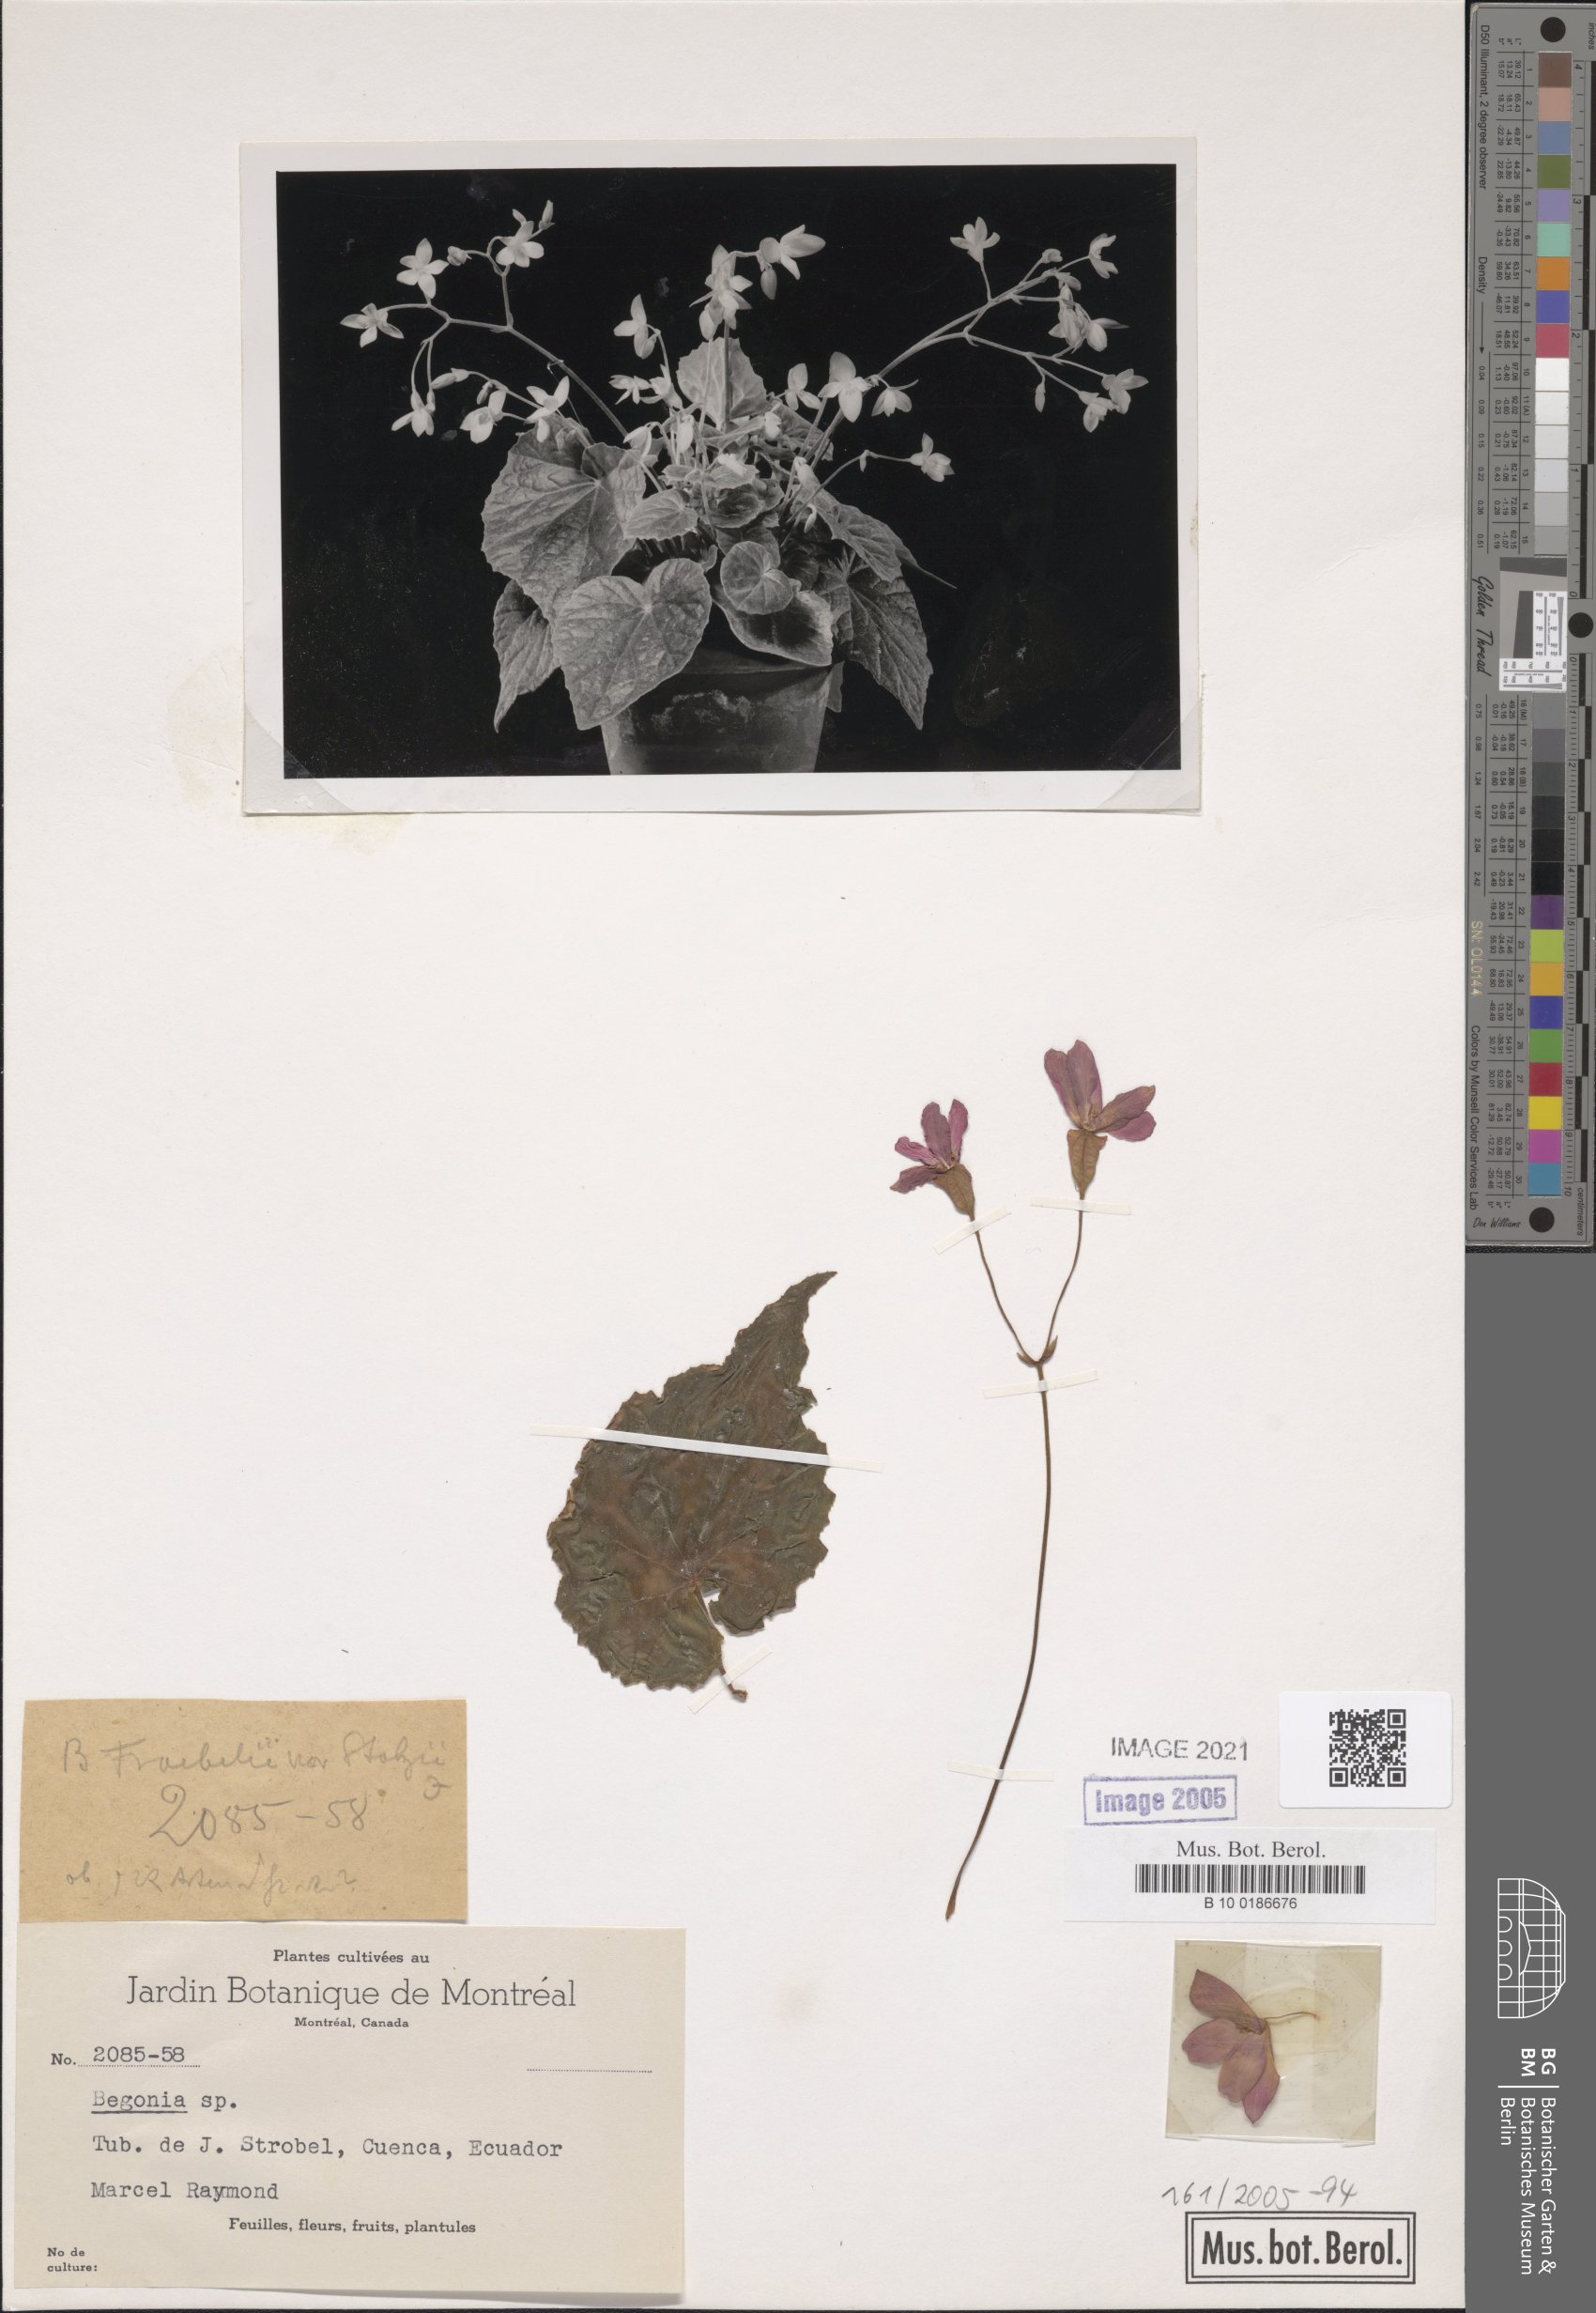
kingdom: Plantae
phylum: Tracheophyta
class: Magnoliopsida
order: Cucurbitales
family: Begoniaceae
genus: Begonia
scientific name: Begonia froebelii
